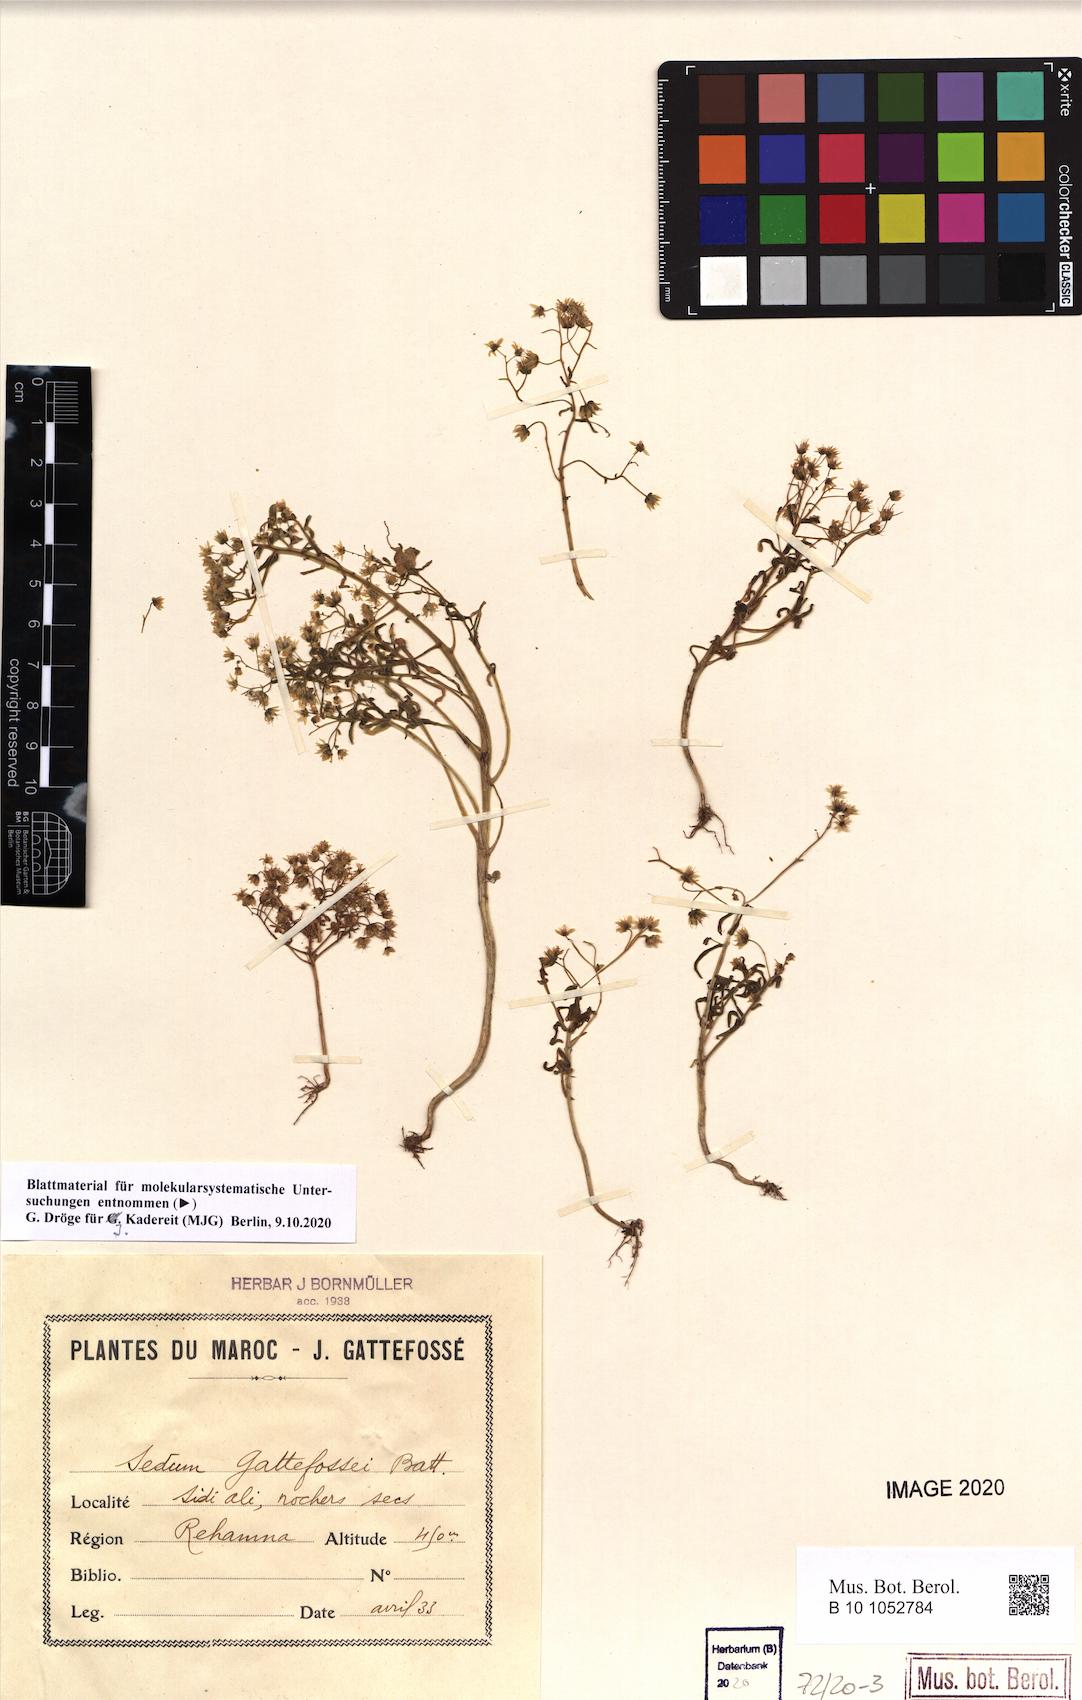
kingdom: Plantae
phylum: Tracheophyta
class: Magnoliopsida
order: Saxifragales
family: Crassulaceae
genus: Sedum
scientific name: Sedum gattefossei
